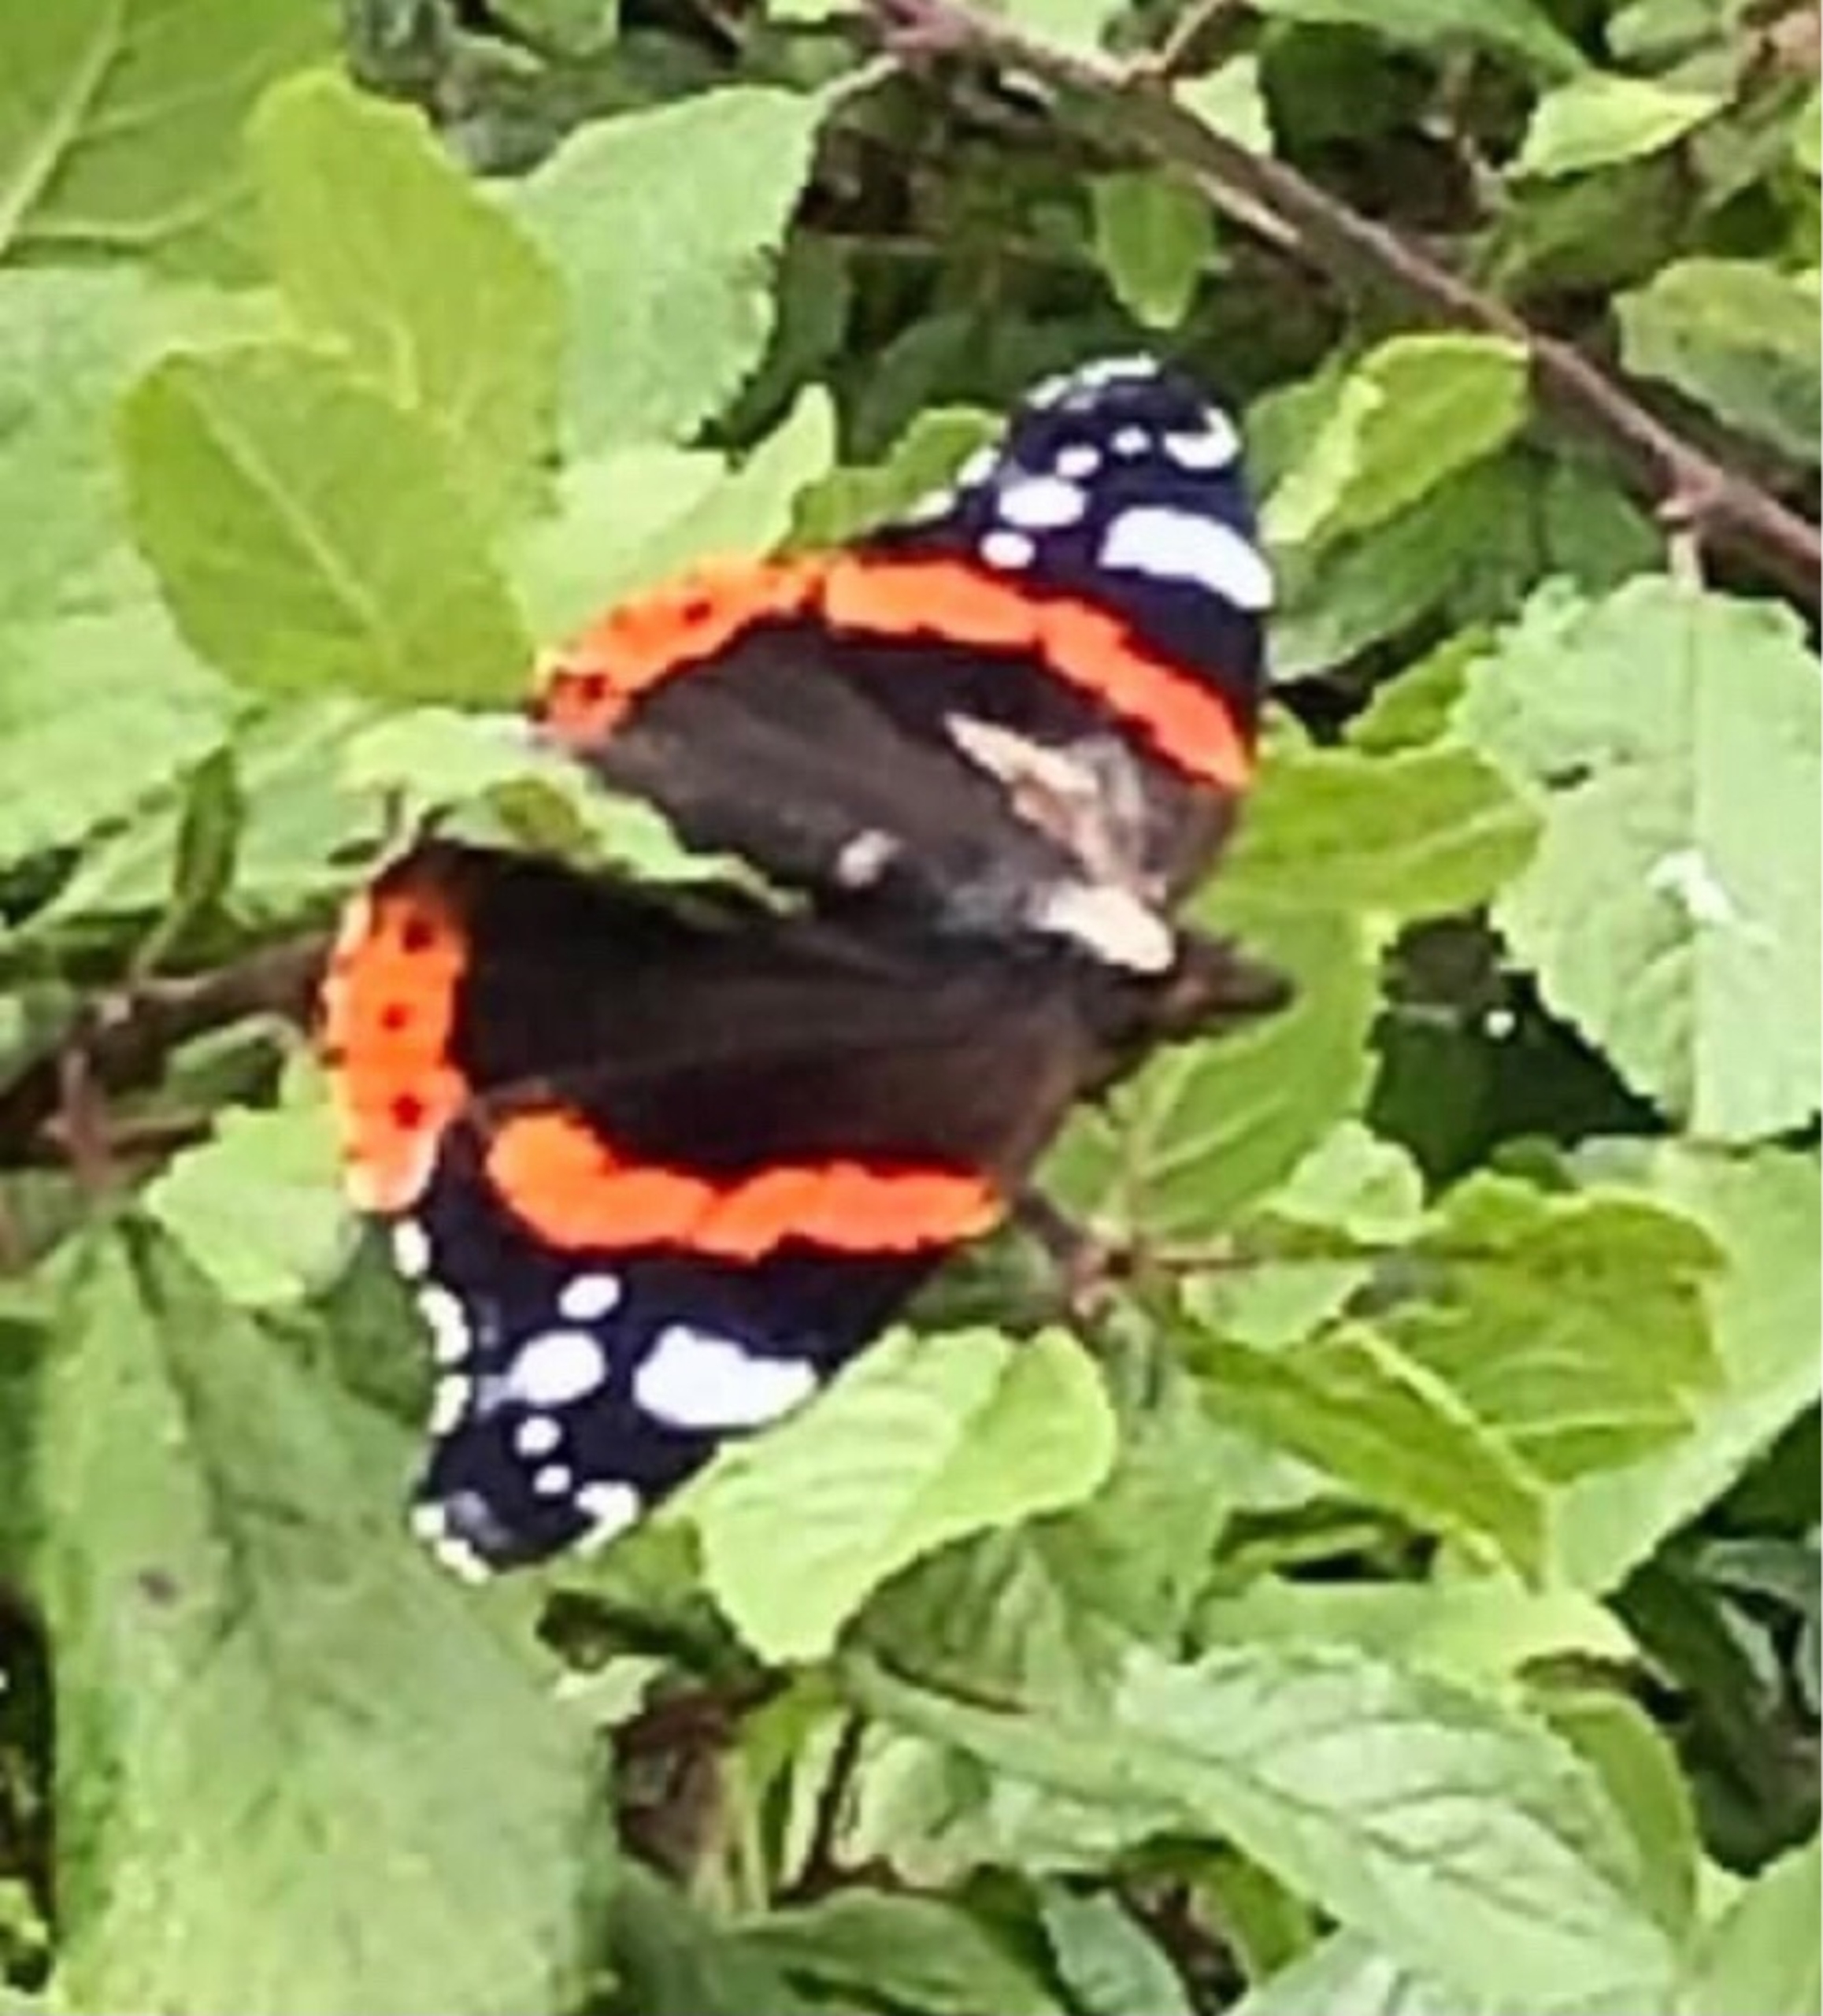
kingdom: Animalia
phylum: Arthropoda
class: Insecta
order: Lepidoptera
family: Nymphalidae
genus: Vanessa
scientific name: Vanessa atalanta
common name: Admiral
